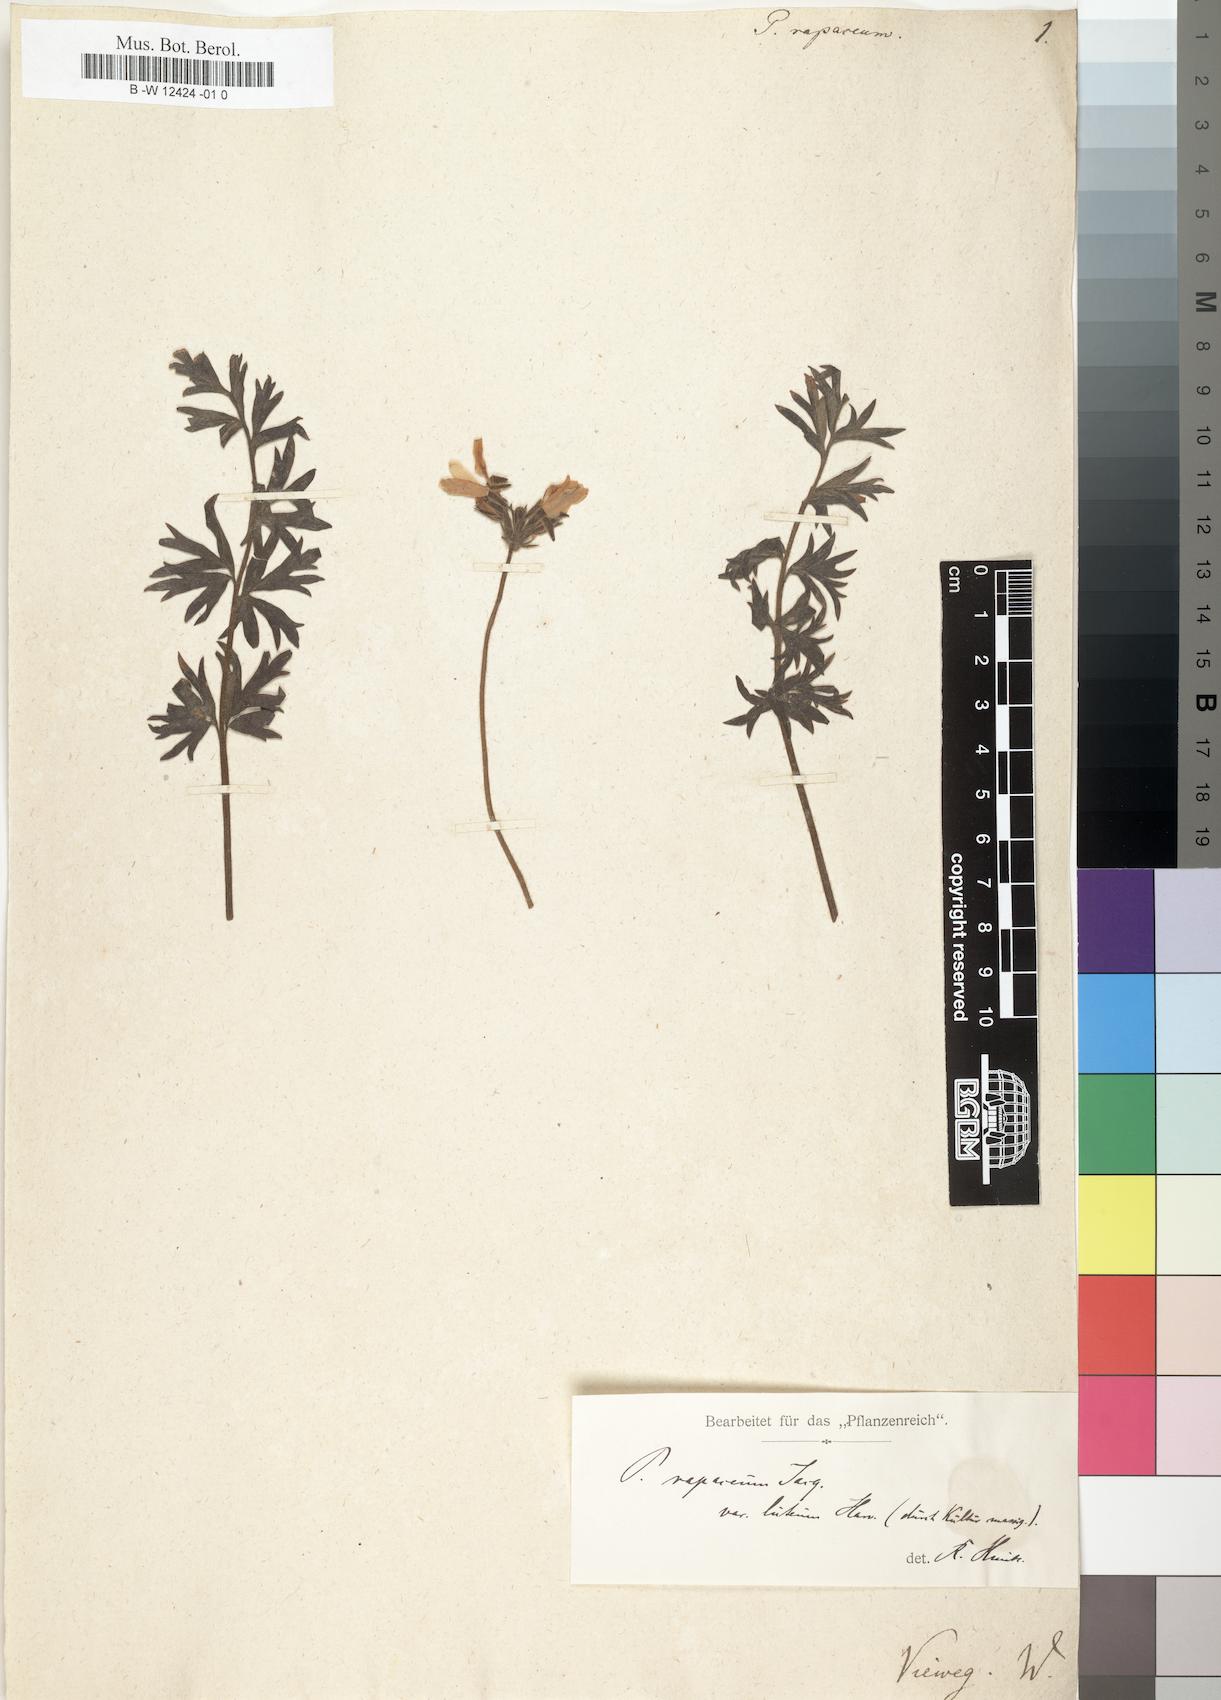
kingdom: Plantae
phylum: Tracheophyta
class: Magnoliopsida
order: Geraniales
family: Geraniaceae
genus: Pelargonium
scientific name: Pelargonium rapaceum
